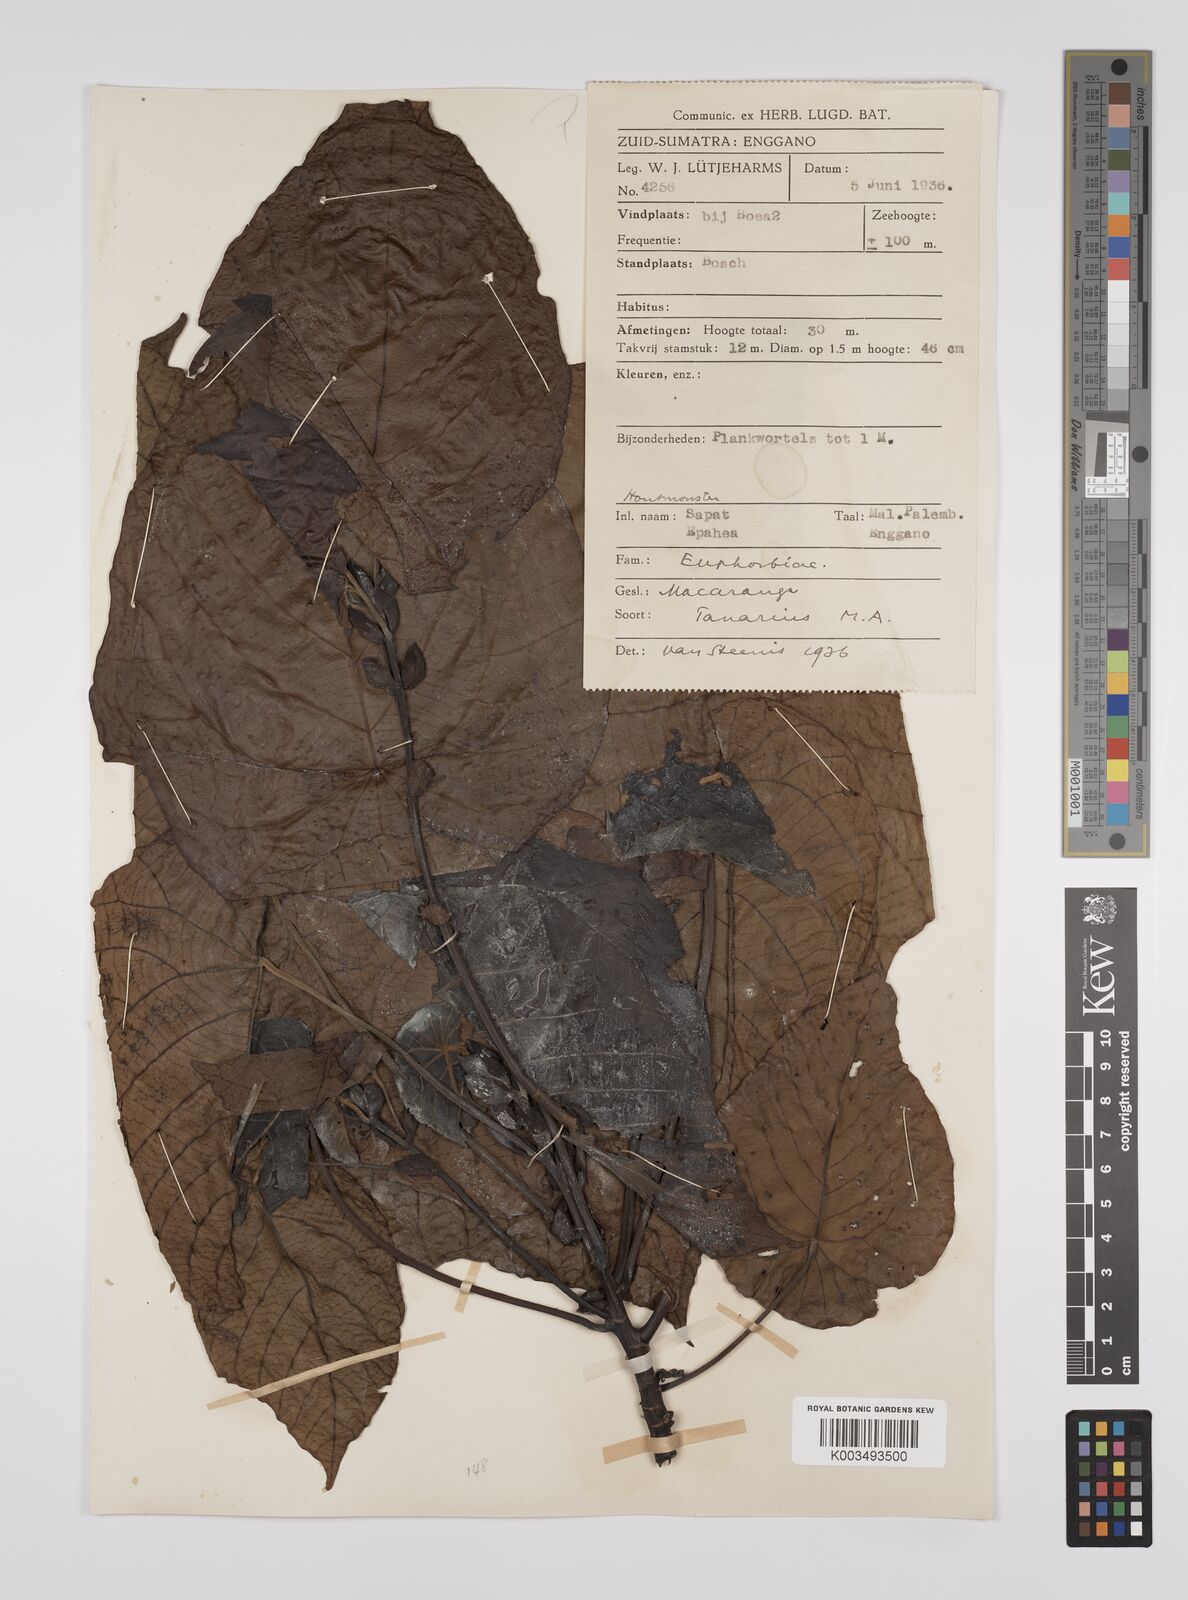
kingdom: Plantae
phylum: Tracheophyta
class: Magnoliopsida
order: Malpighiales
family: Euphorbiaceae
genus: Macaranga
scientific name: Macaranga tanarius
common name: Parasol leaf tree
